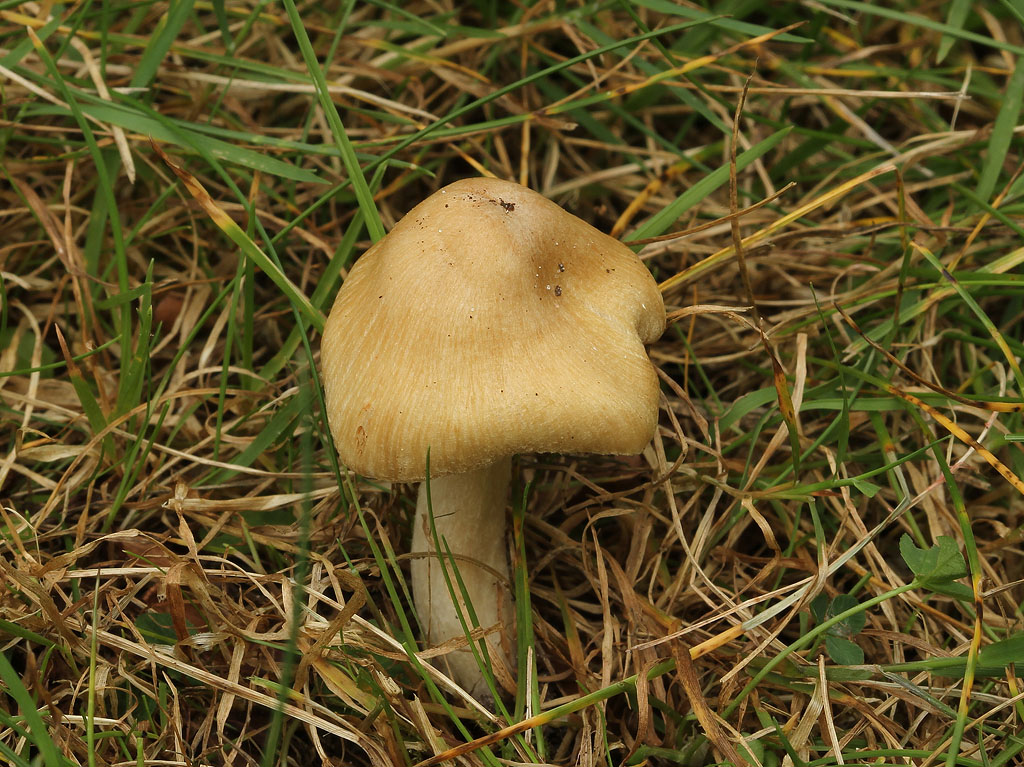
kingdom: Fungi
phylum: Basidiomycota
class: Agaricomycetes
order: Agaricales
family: Inocybaceae
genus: Pseudosperma
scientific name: Pseudosperma rimosum
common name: gulbladet trævlhat
